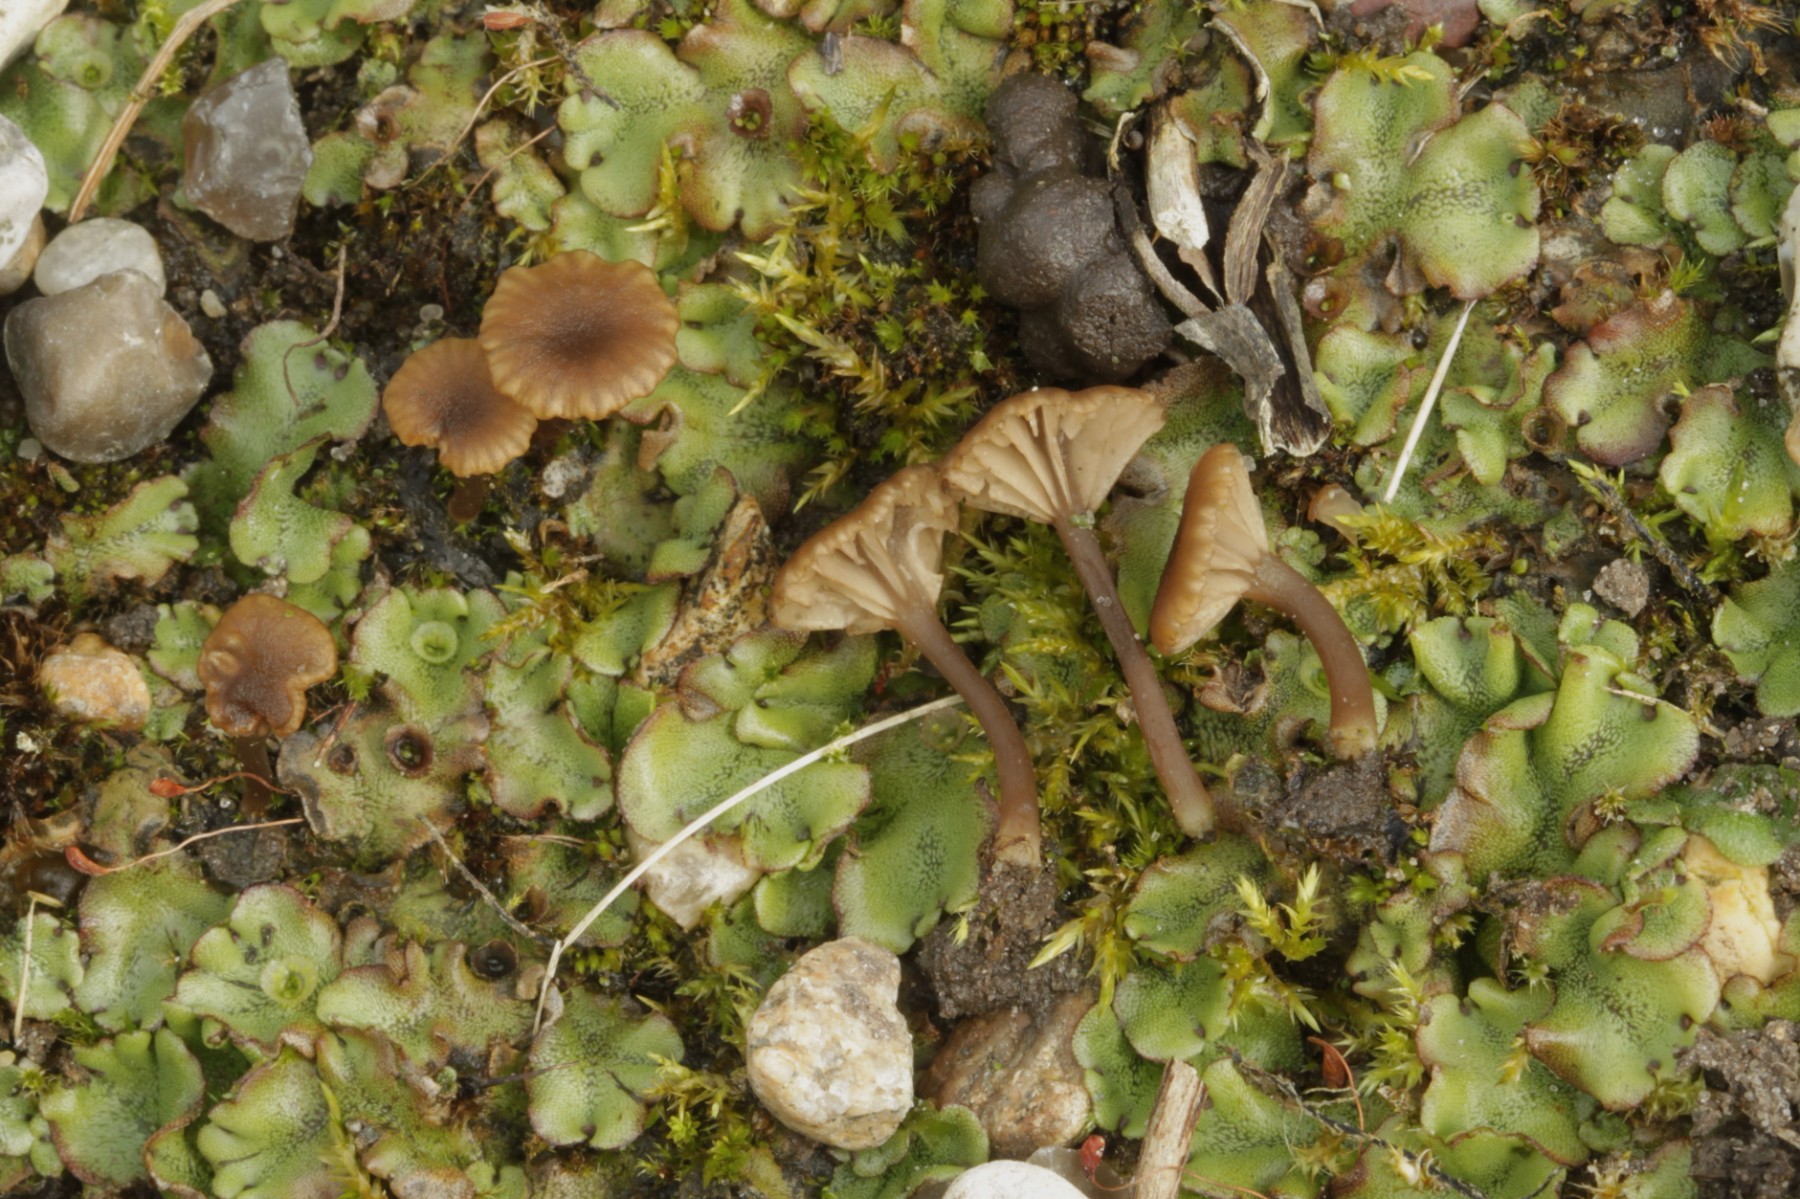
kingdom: Fungi
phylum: Basidiomycota
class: Agaricomycetes
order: Agaricales
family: Hygrophoraceae
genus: Arrhenia
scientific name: Arrhenia
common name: fontænehat
